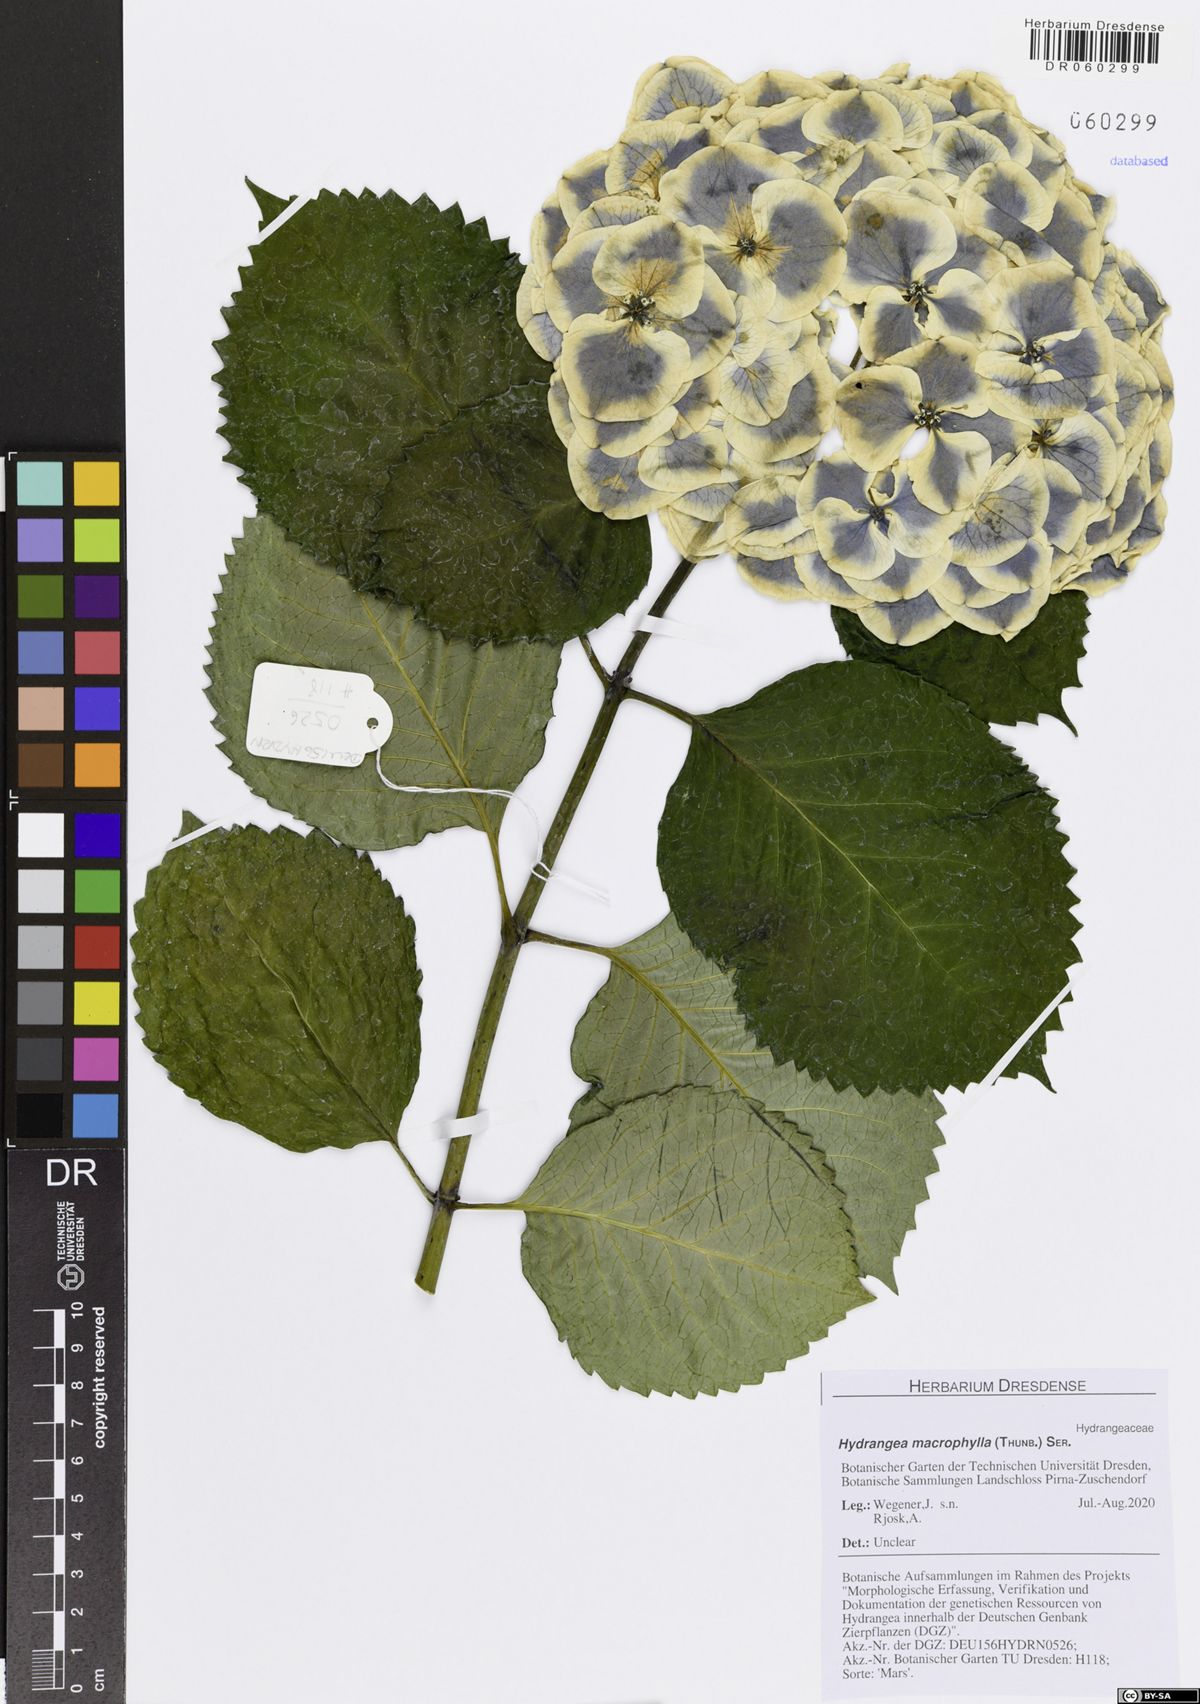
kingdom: Plantae
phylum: Tracheophyta
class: Magnoliopsida
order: Cornales
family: Hydrangeaceae
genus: Hydrangea
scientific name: Hydrangea macrophylla
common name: Hydrangea
